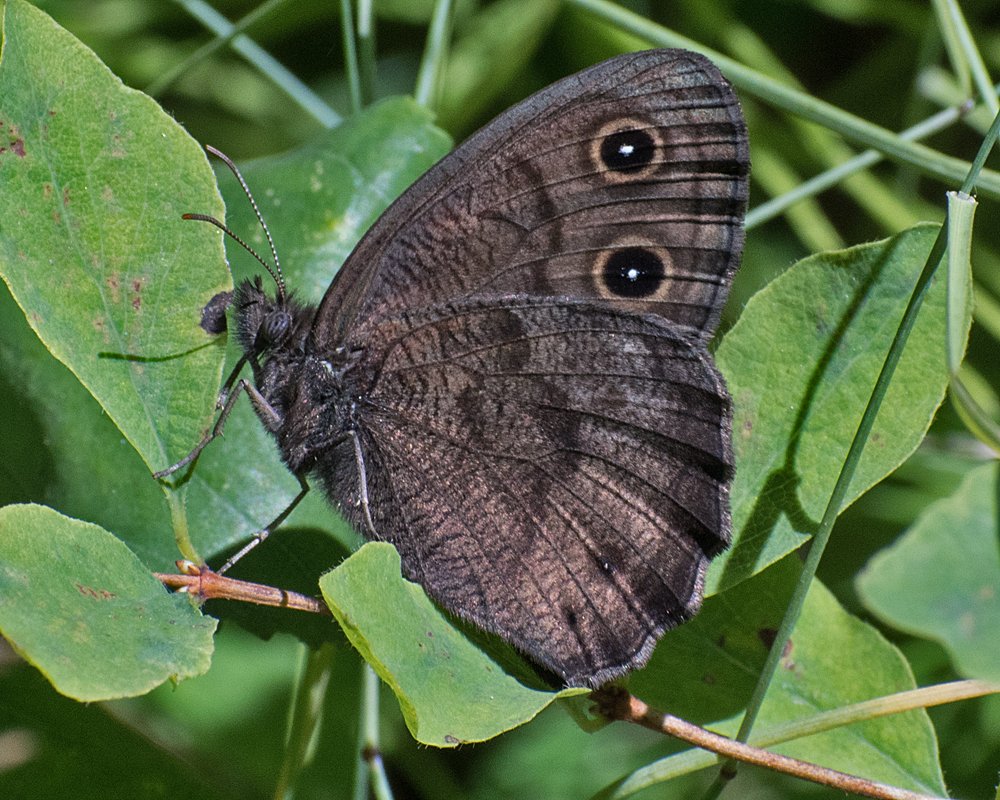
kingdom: Animalia
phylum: Arthropoda
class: Insecta
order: Lepidoptera
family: Nymphalidae
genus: Cercyonis
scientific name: Cercyonis pegala
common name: Common Wood-Nymph
